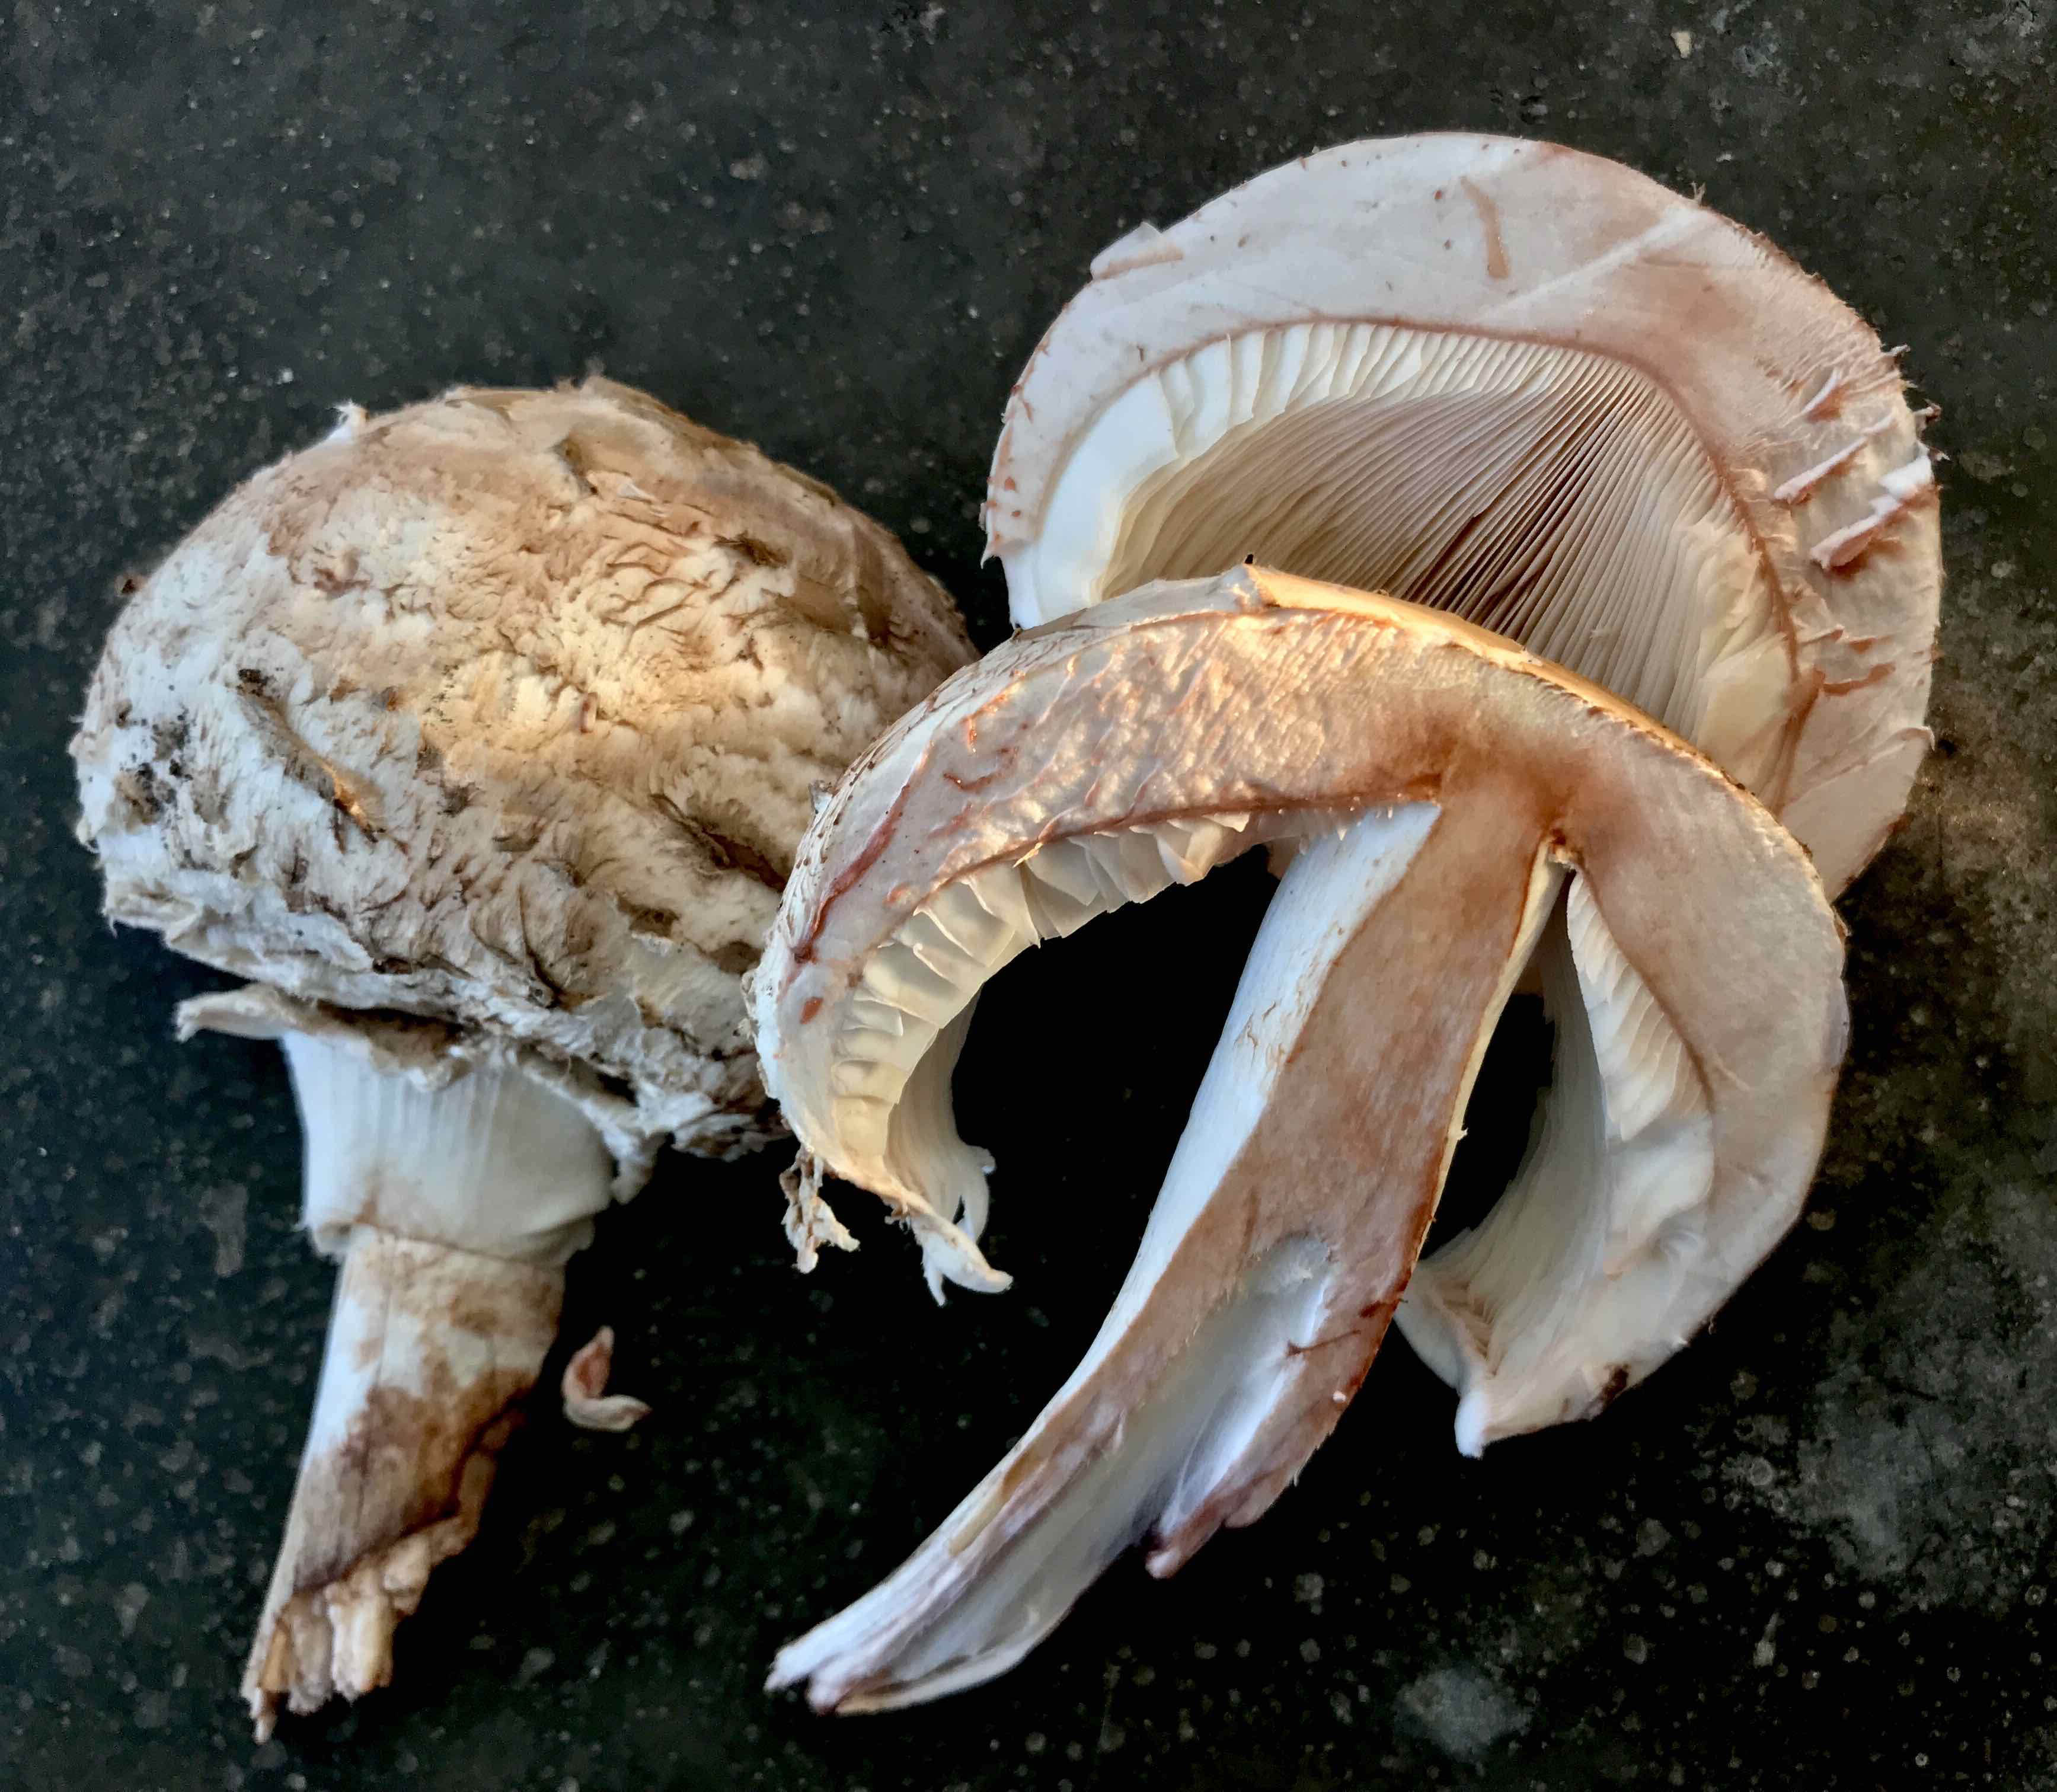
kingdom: Fungi
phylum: Basidiomycota
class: Agaricomycetes
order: Agaricales
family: Agaricaceae
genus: Chlorophyllum
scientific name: Chlorophyllum rhacodes
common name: ægte rabarberhat
